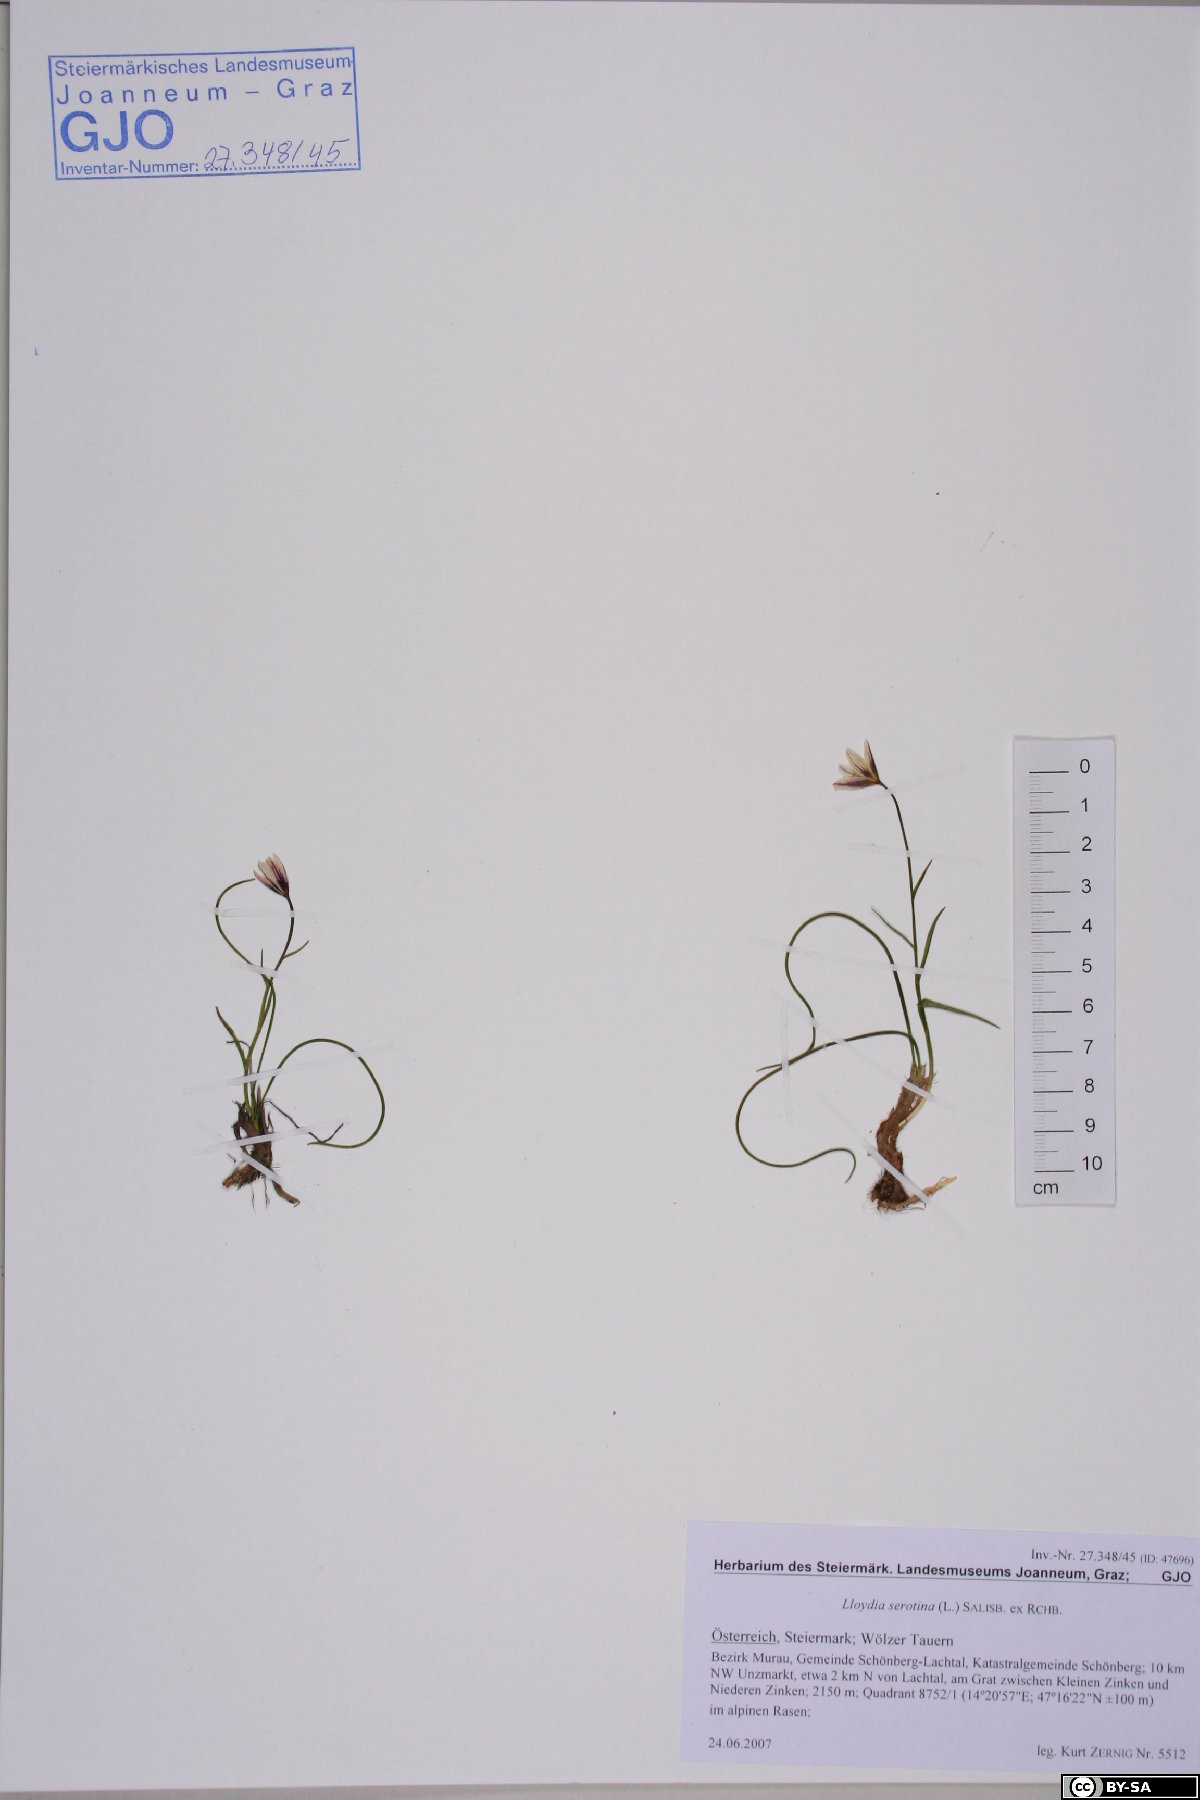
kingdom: Plantae
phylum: Tracheophyta
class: Liliopsida
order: Liliales
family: Liliaceae
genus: Gagea
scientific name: Gagea serotina
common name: Snowdon lily
